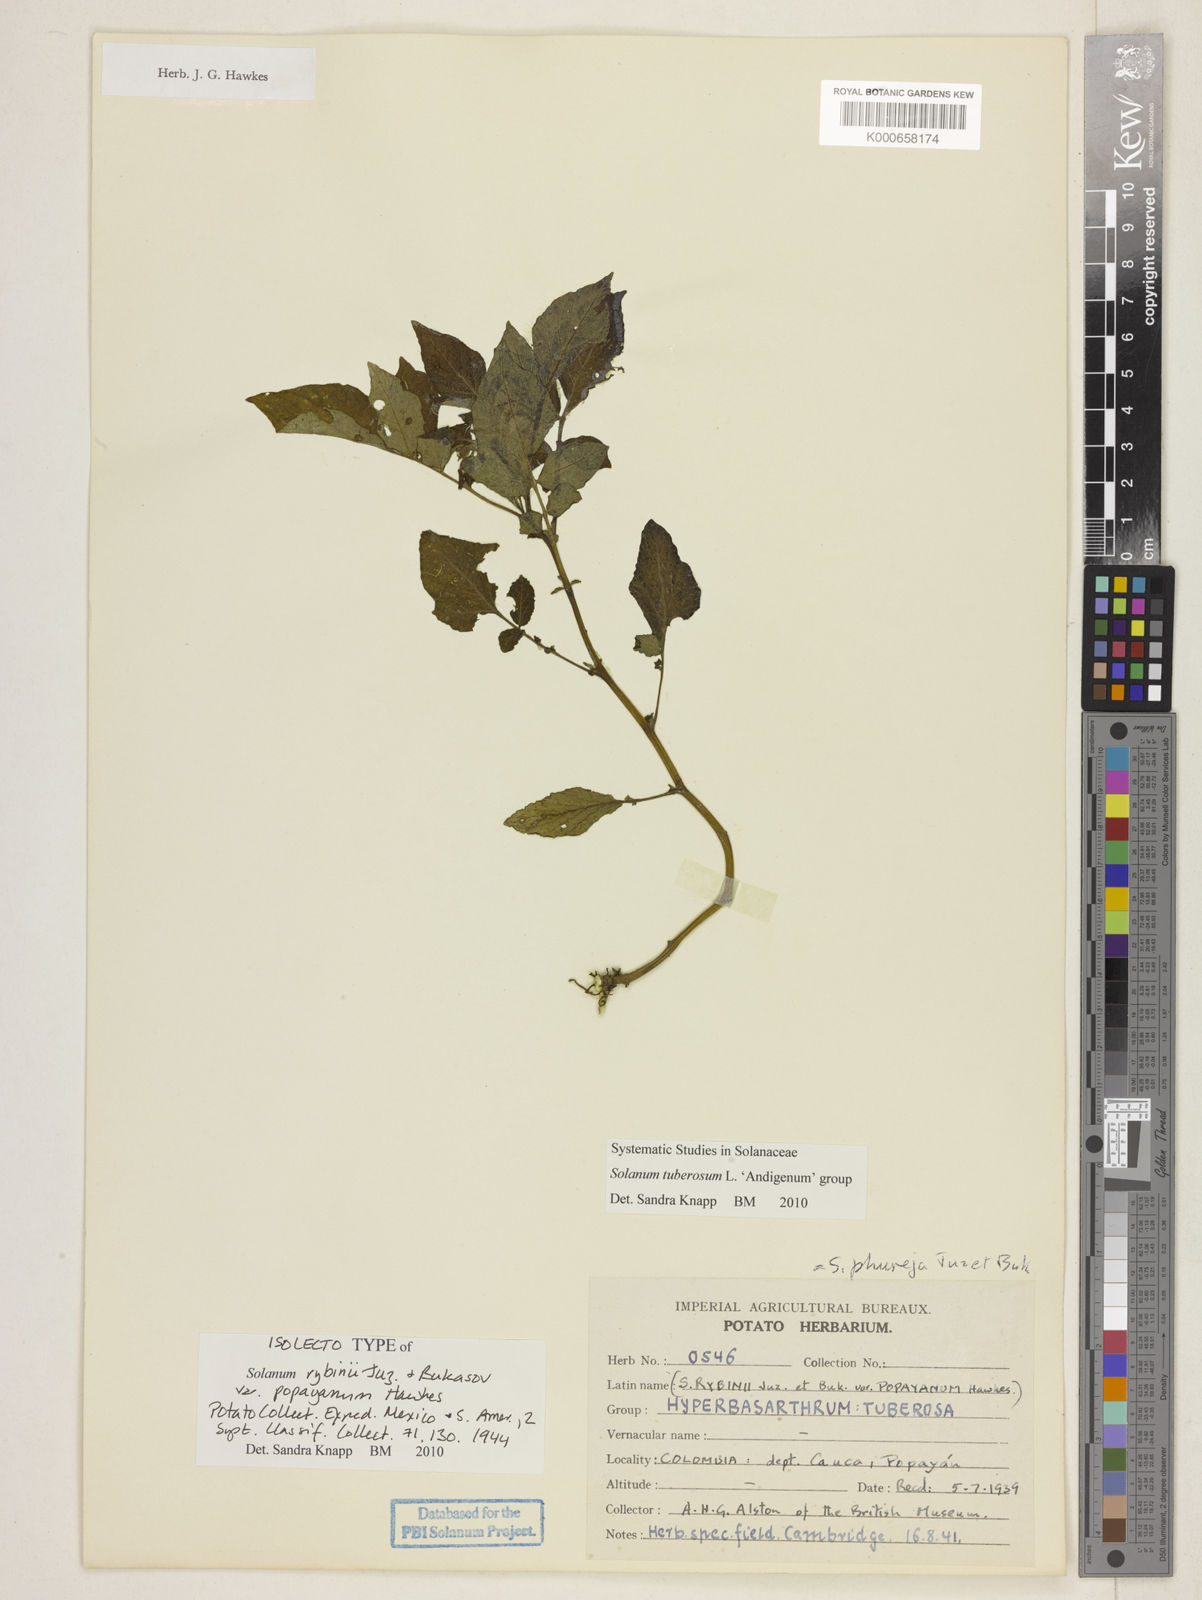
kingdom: Plantae
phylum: Tracheophyta
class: Magnoliopsida
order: Solanales
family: Solanaceae
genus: Solanum
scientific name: Solanum tuberosum
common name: Potato
